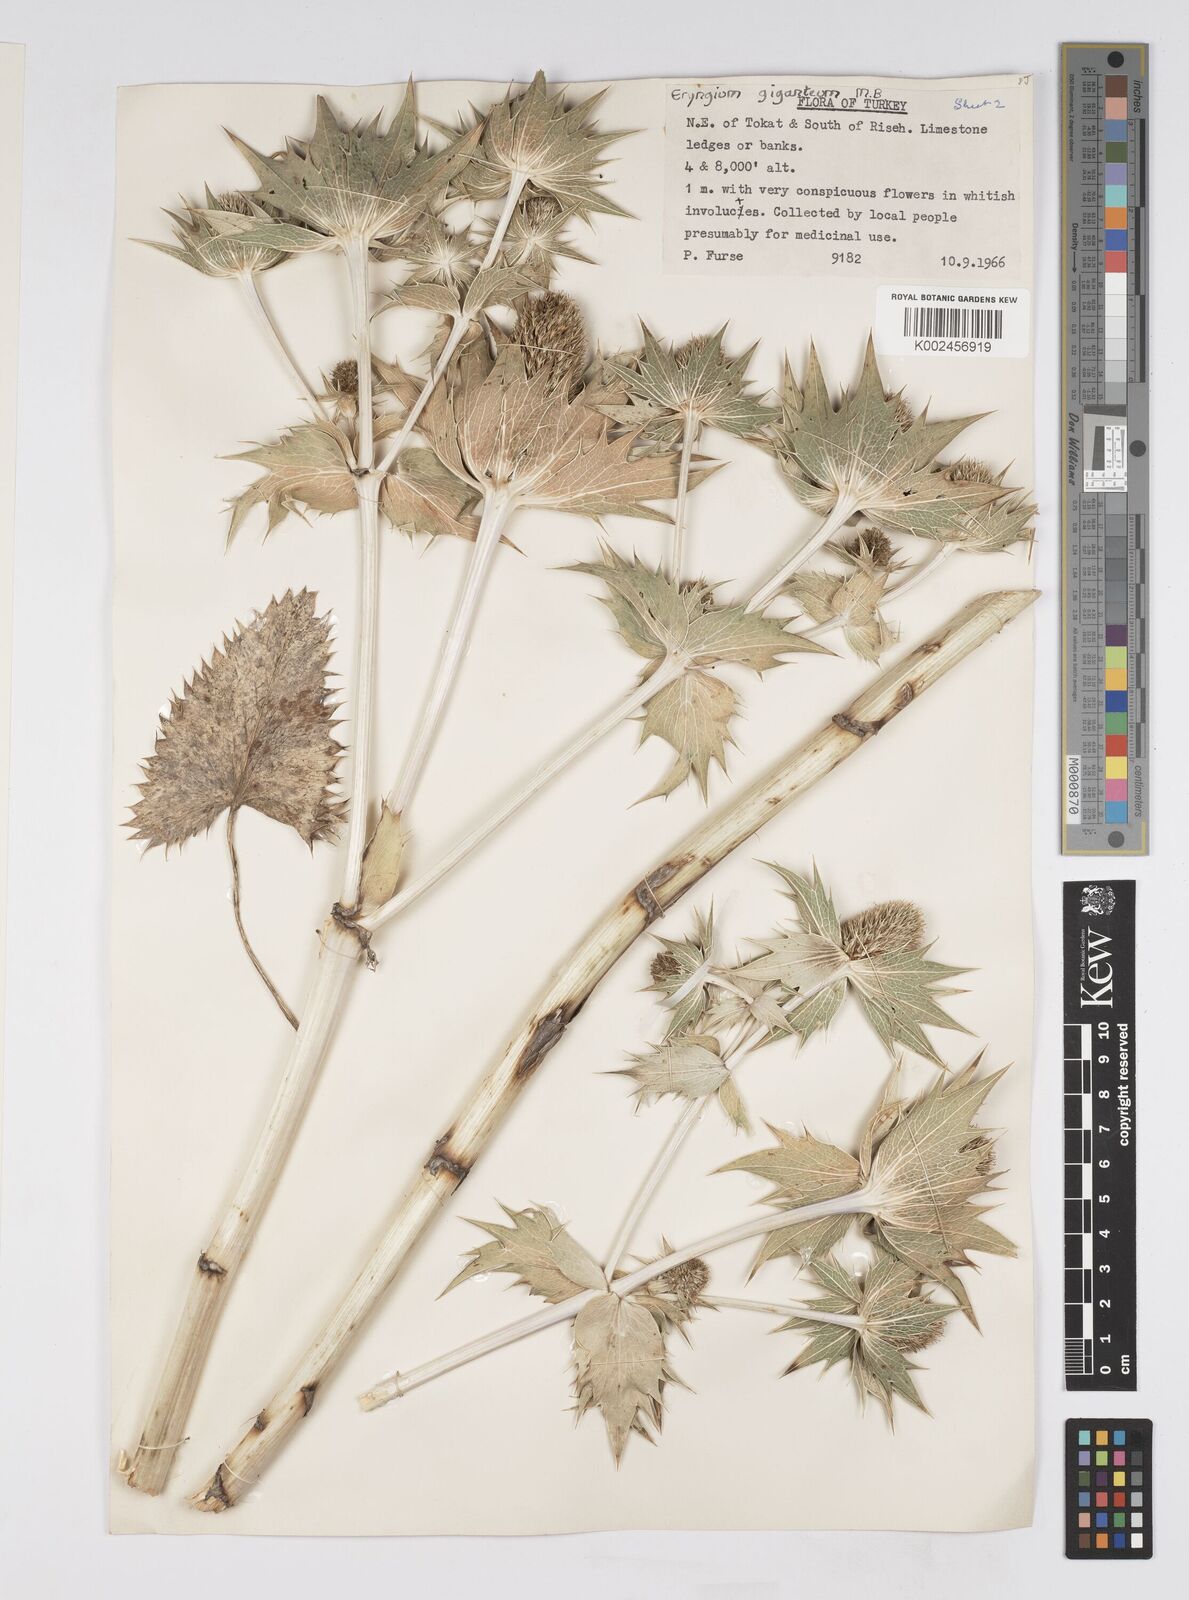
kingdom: Plantae
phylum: Tracheophyta
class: Magnoliopsida
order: Apiales
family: Apiaceae
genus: Eryngium
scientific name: Eryngium giganteum
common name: Tall eryngo
